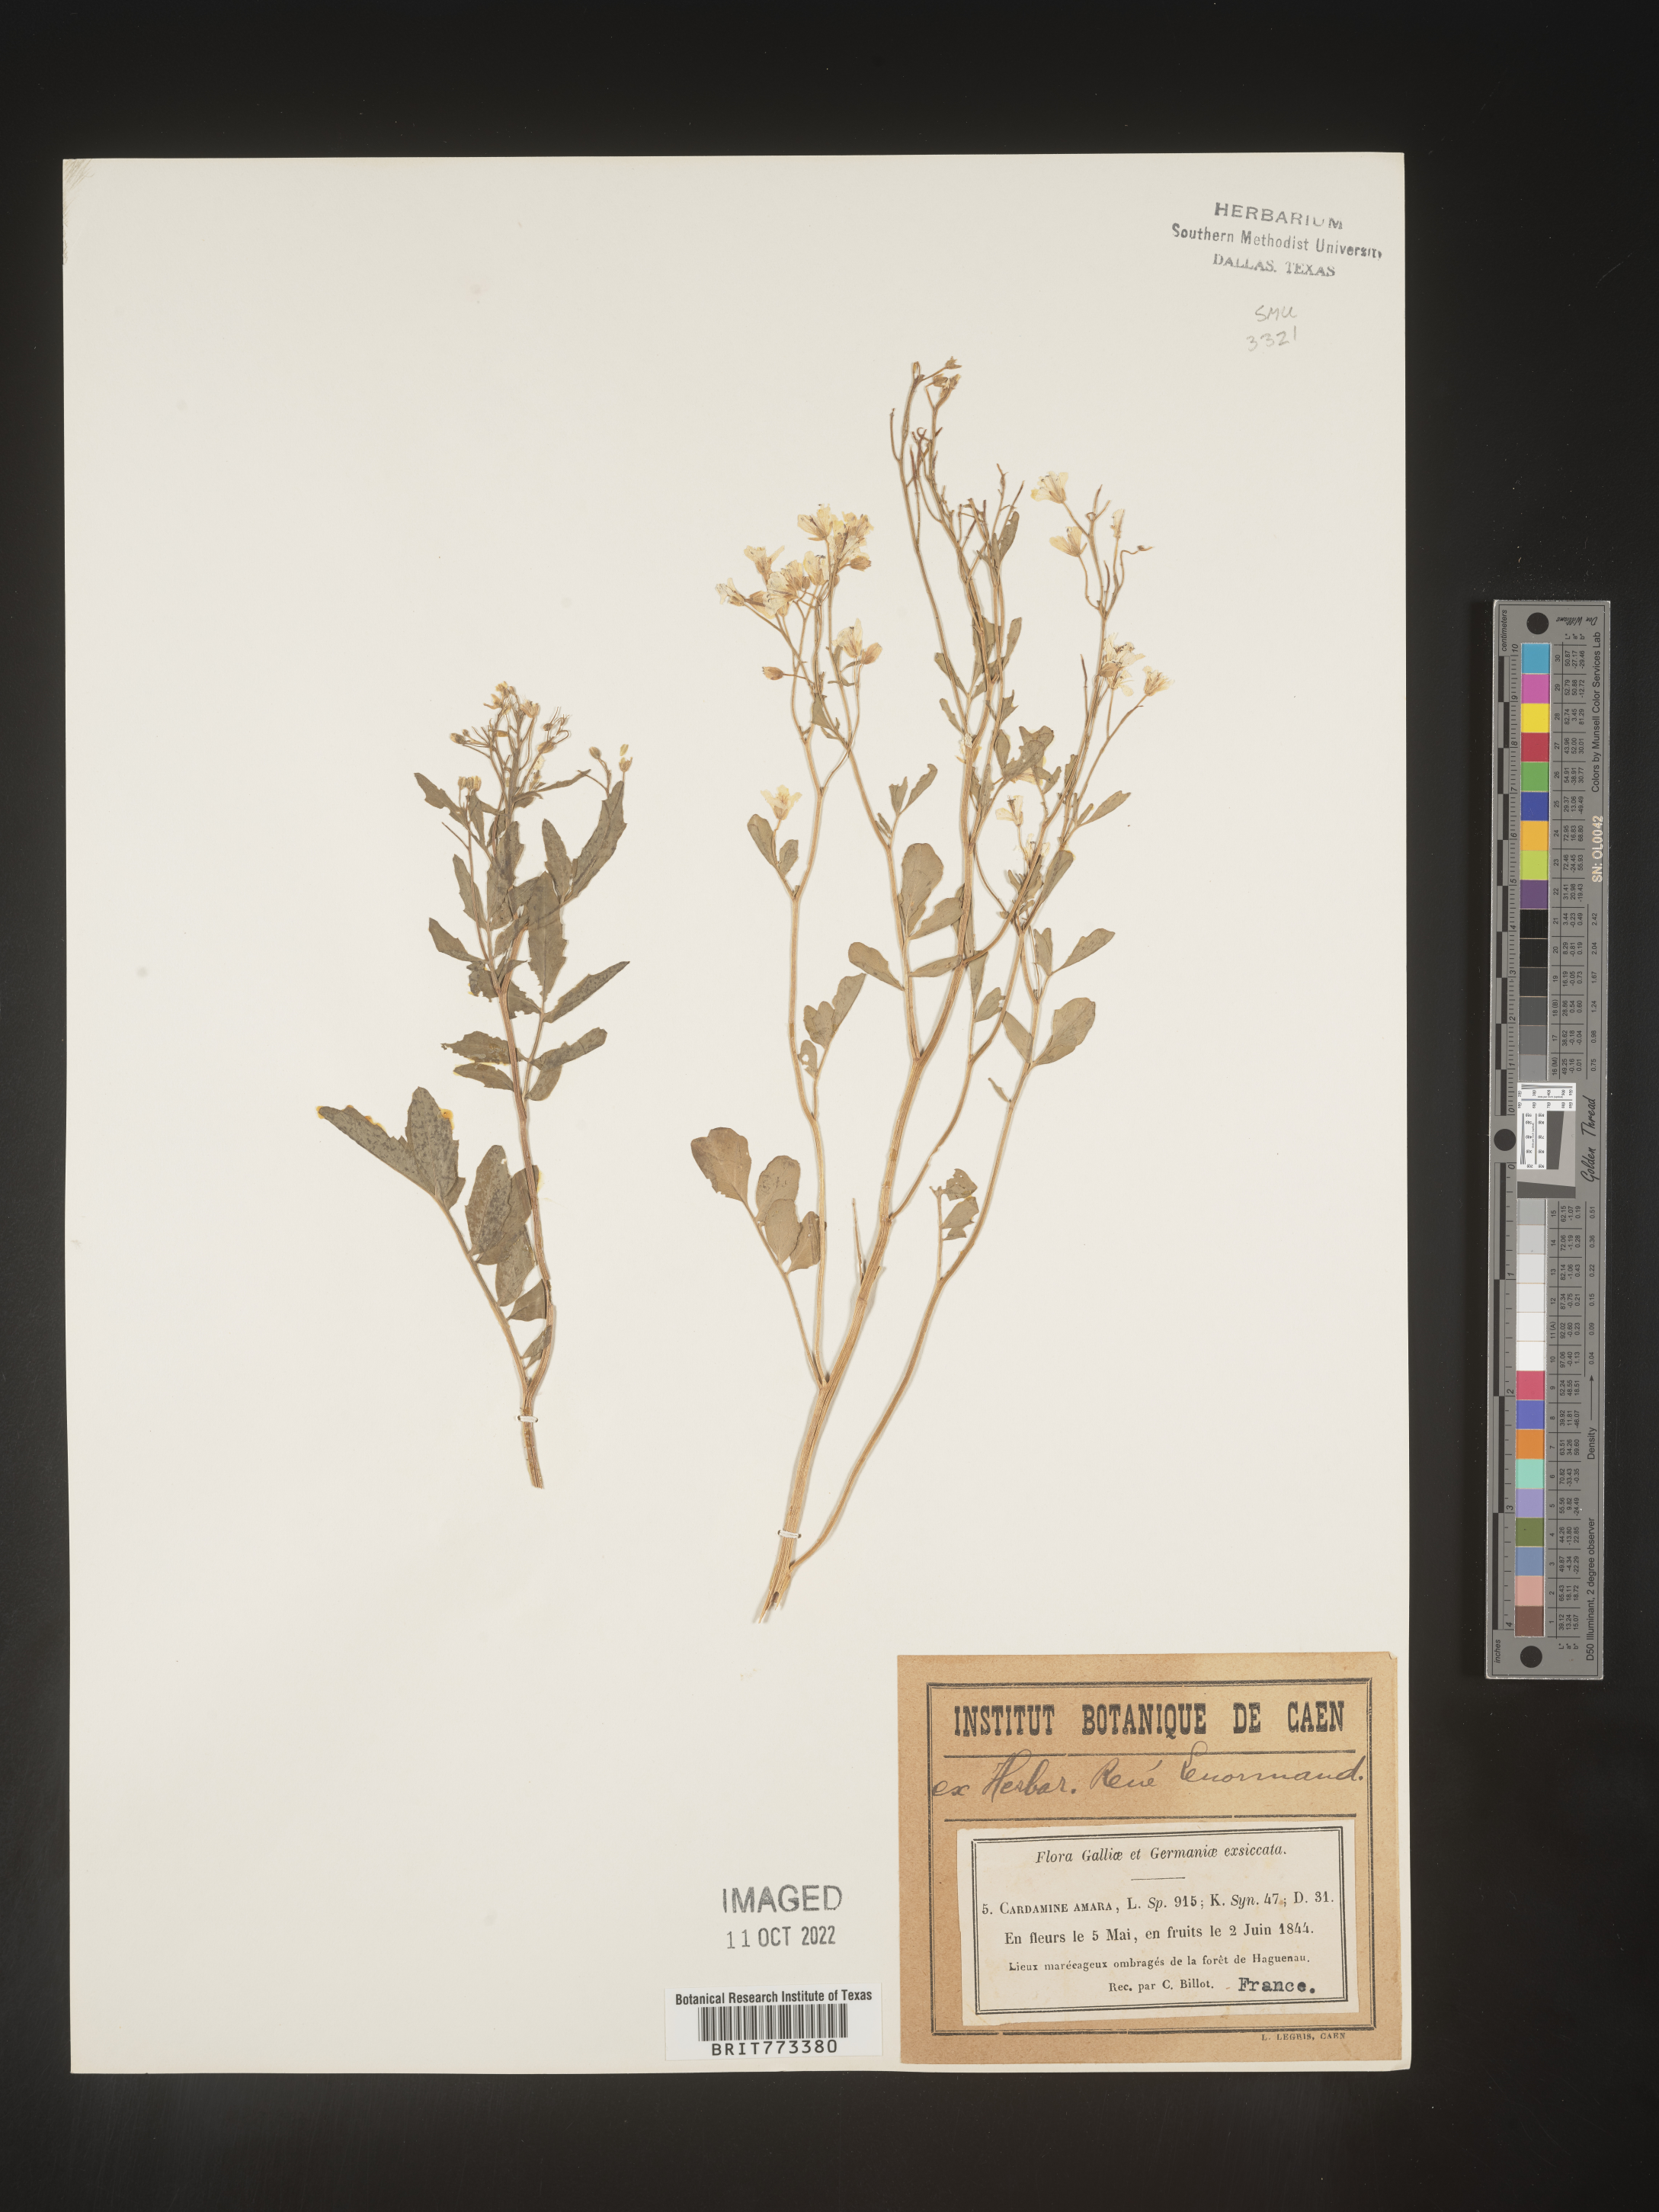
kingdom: Plantae
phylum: Tracheophyta
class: Magnoliopsida
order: Brassicales
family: Brassicaceae
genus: Cardamine
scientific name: Cardamine
